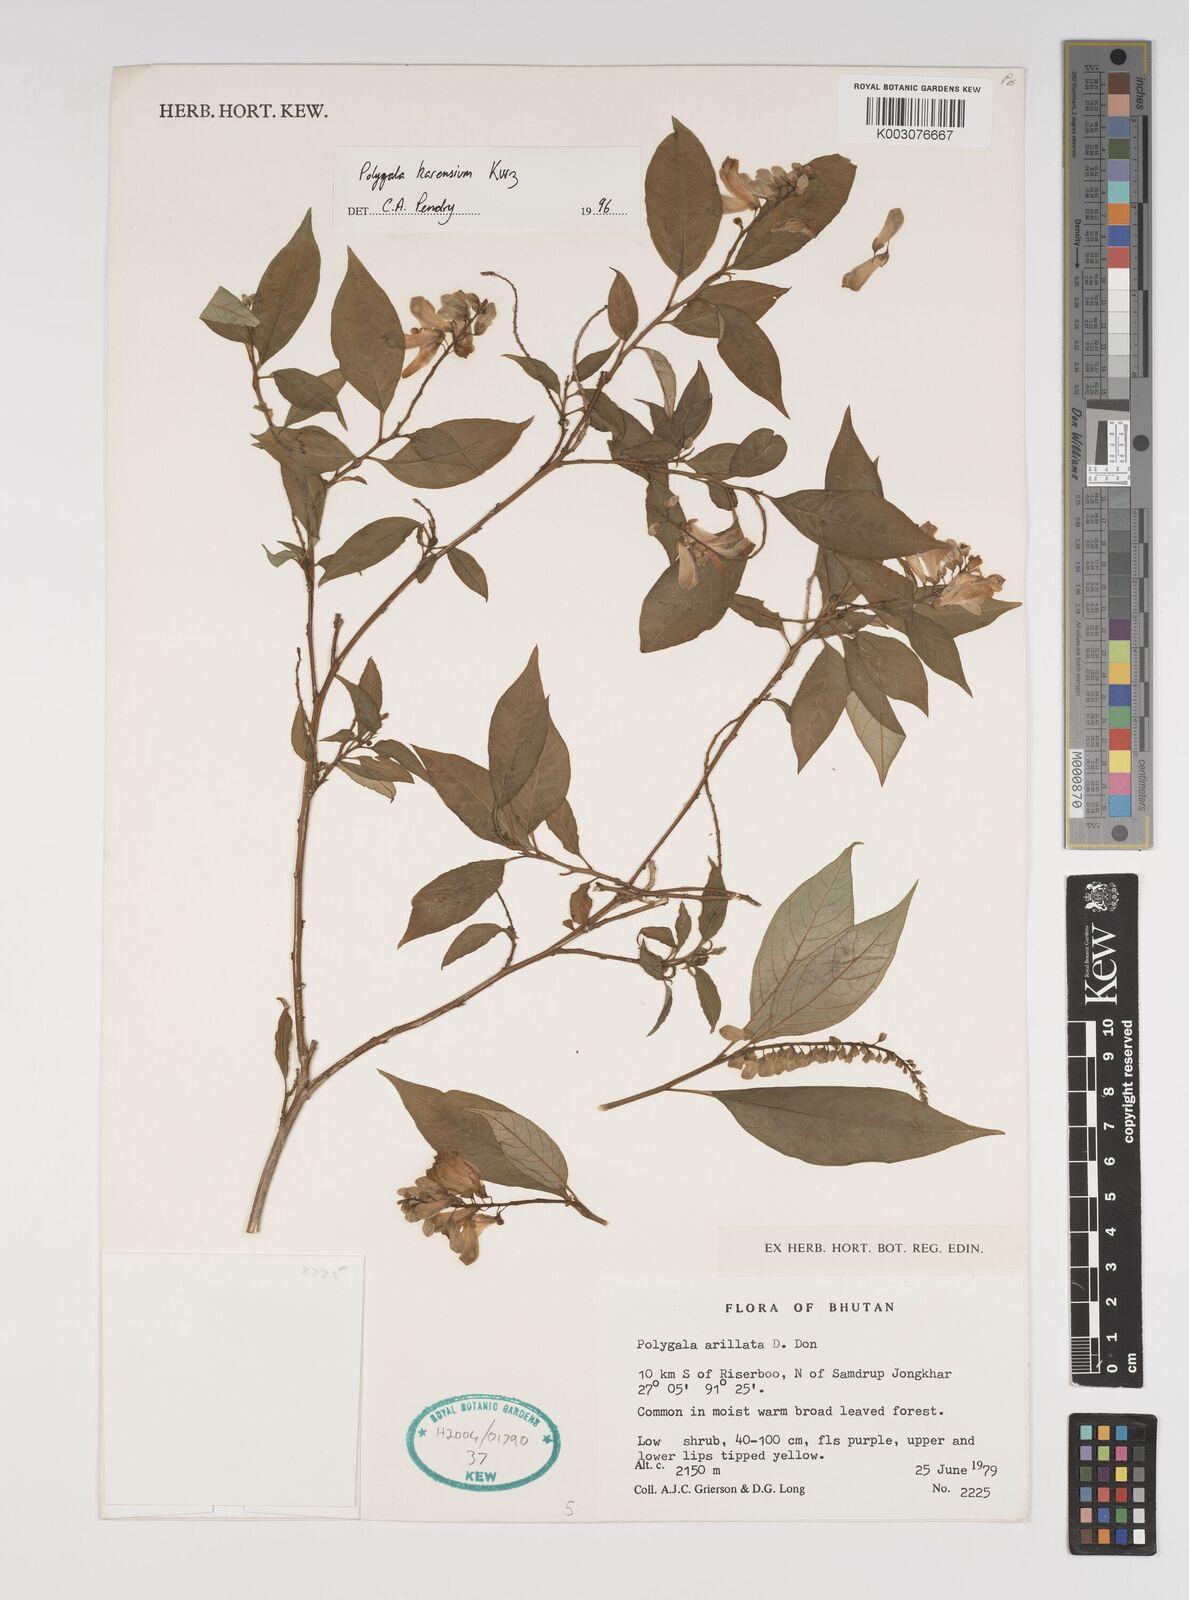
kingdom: Plantae
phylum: Tracheophyta
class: Magnoliopsida
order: Fabales
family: Polygalaceae
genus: Polygala
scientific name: Polygala karensium
